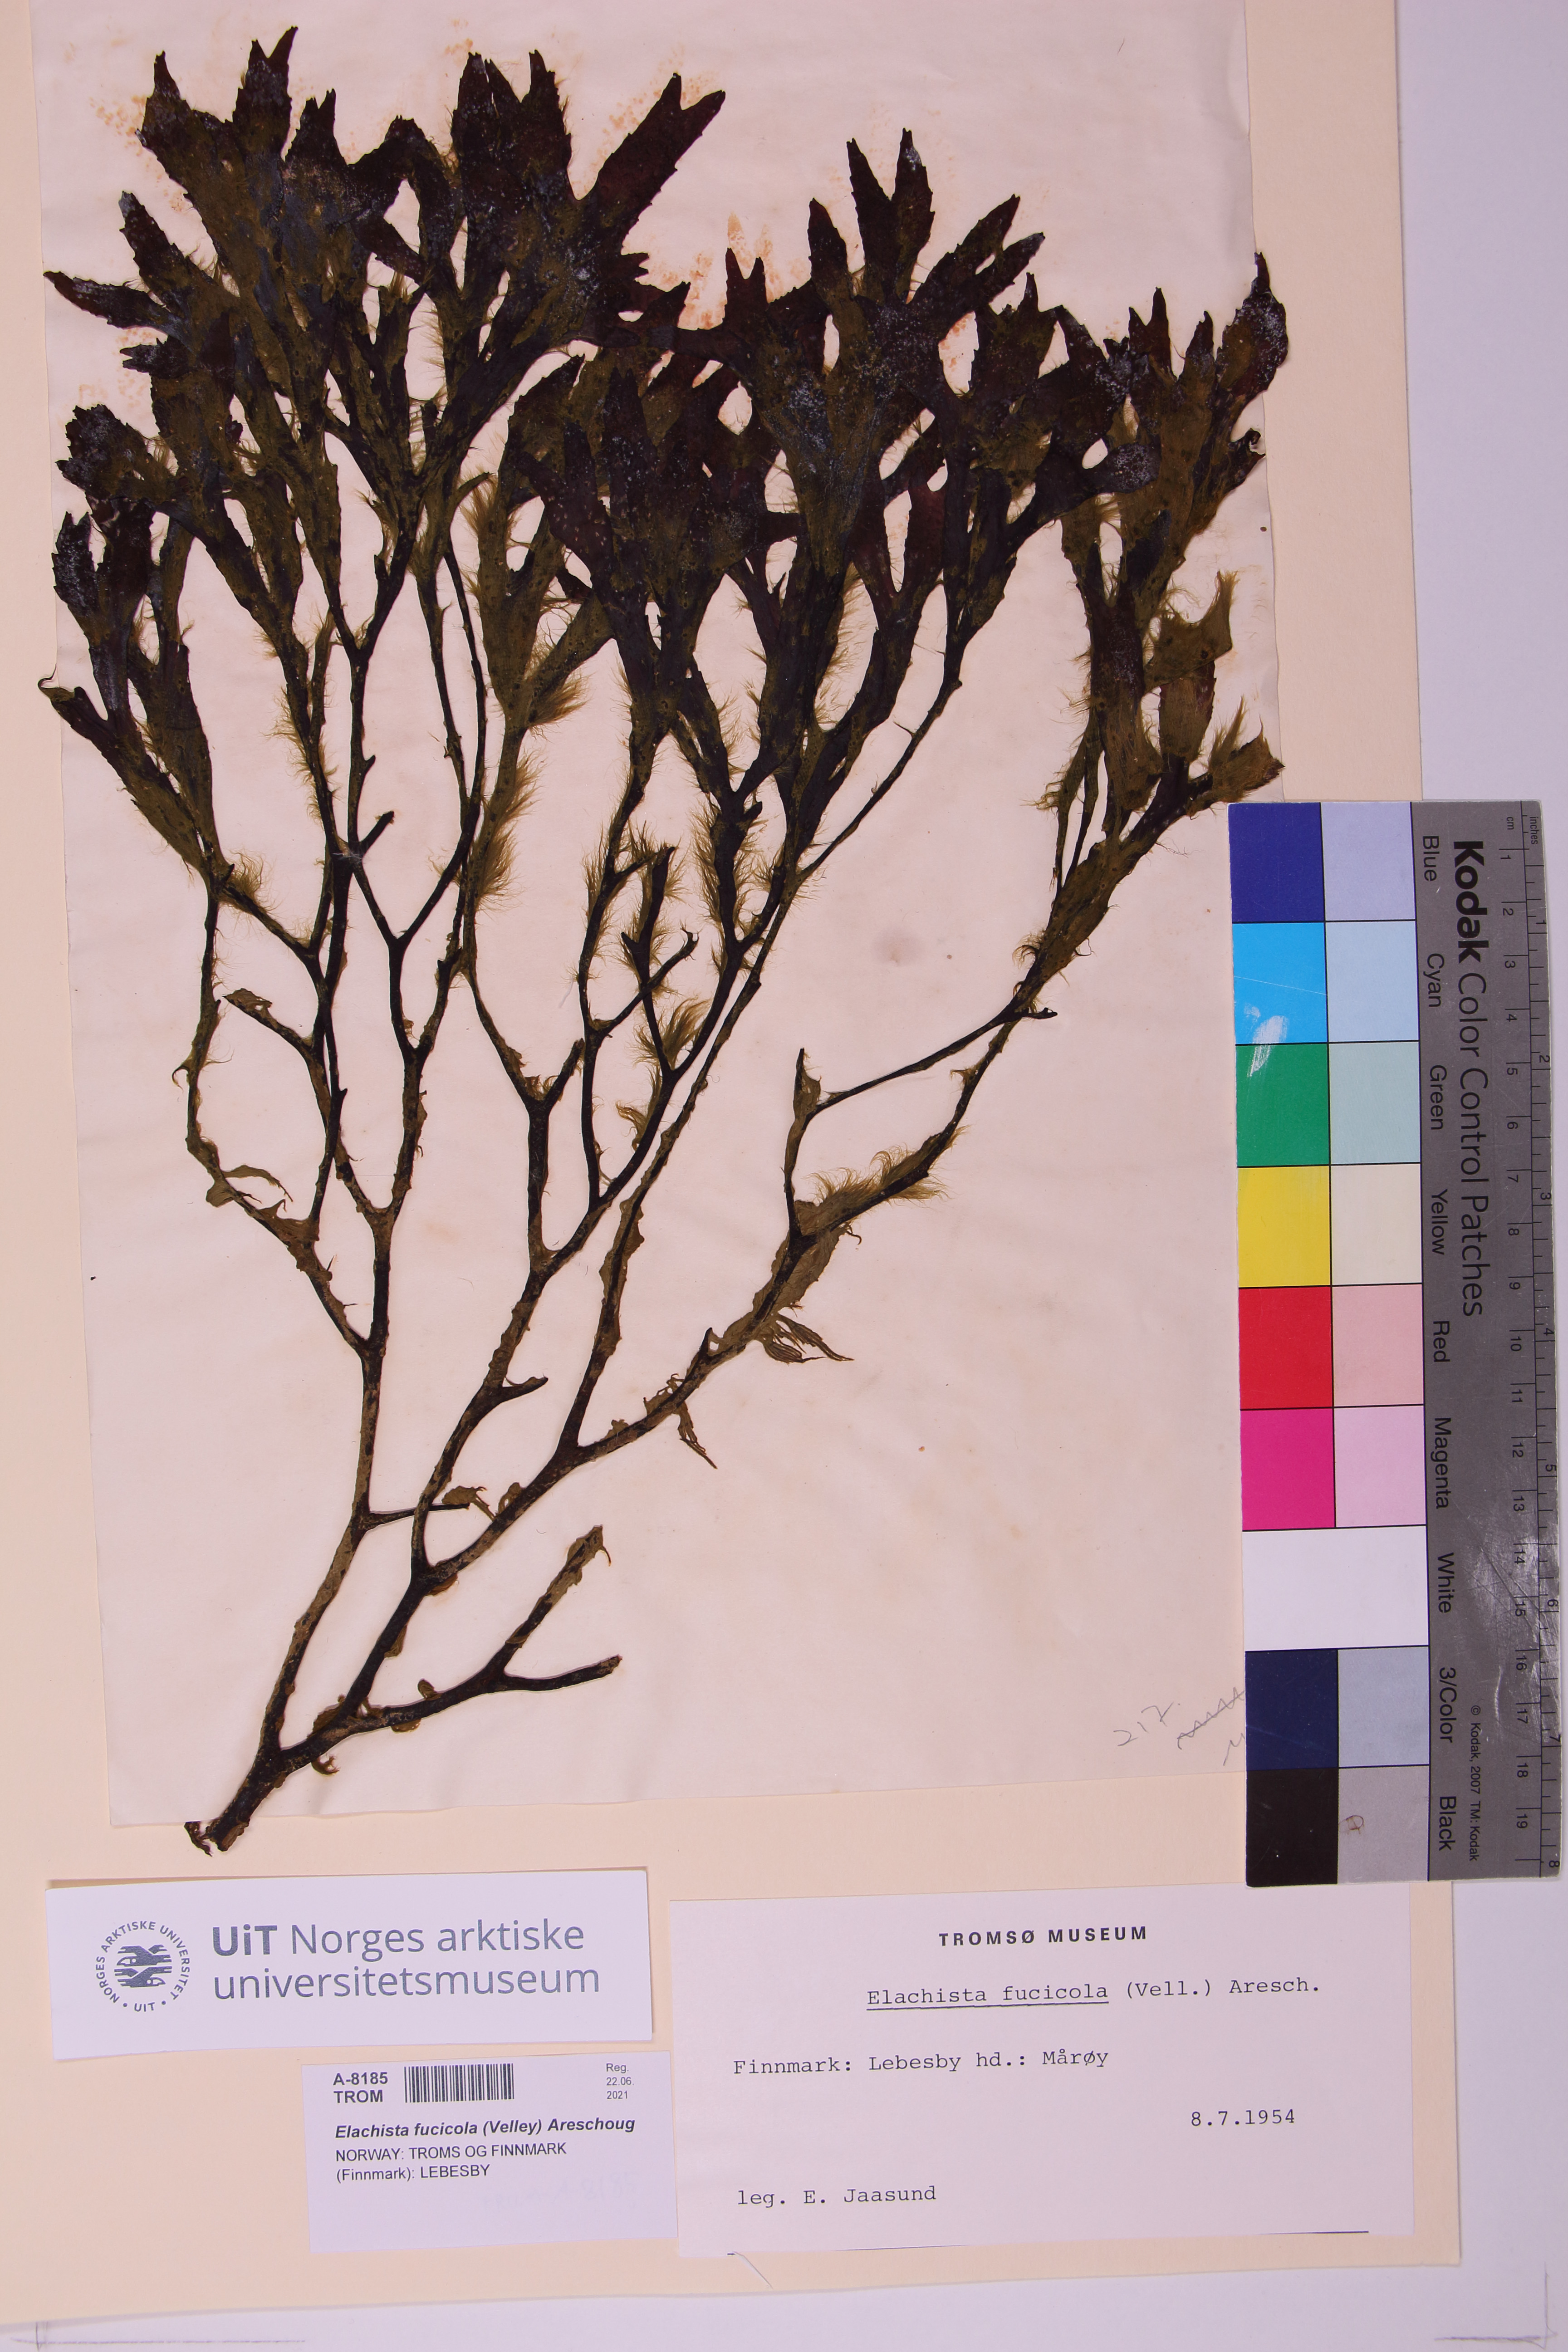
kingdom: Chromista
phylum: Ochrophyta
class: Phaeophyceae
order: Ectocarpales
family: Chordariaceae
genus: Elachista
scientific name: Elachista fucicola
